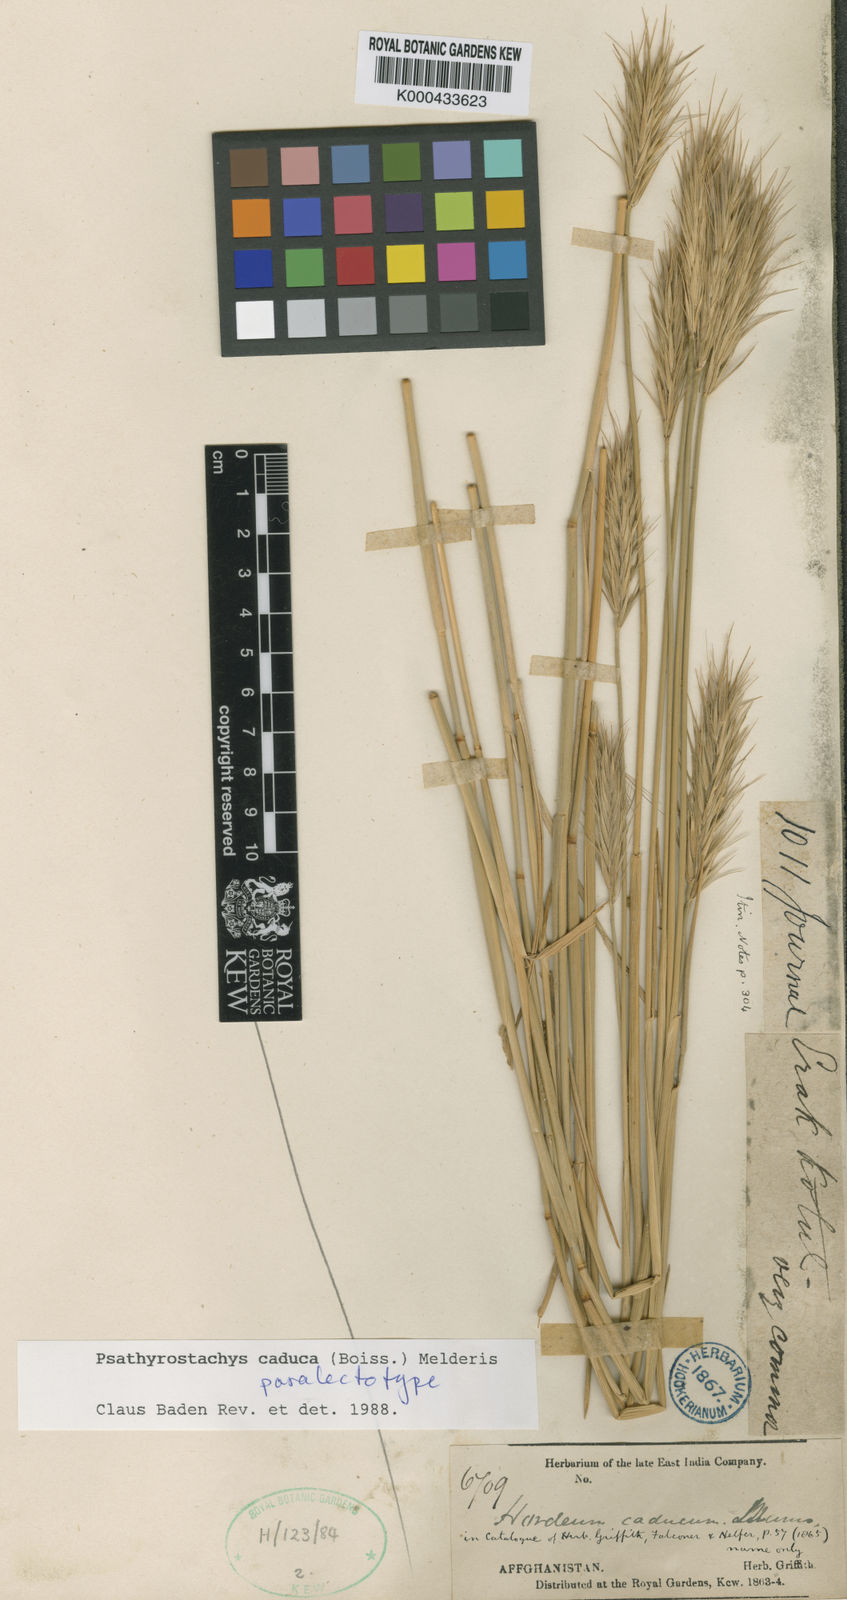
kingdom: Plantae
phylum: Tracheophyta
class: Liliopsida
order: Poales
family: Poaceae
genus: Psathyrostachys
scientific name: Psathyrostachys caduca
